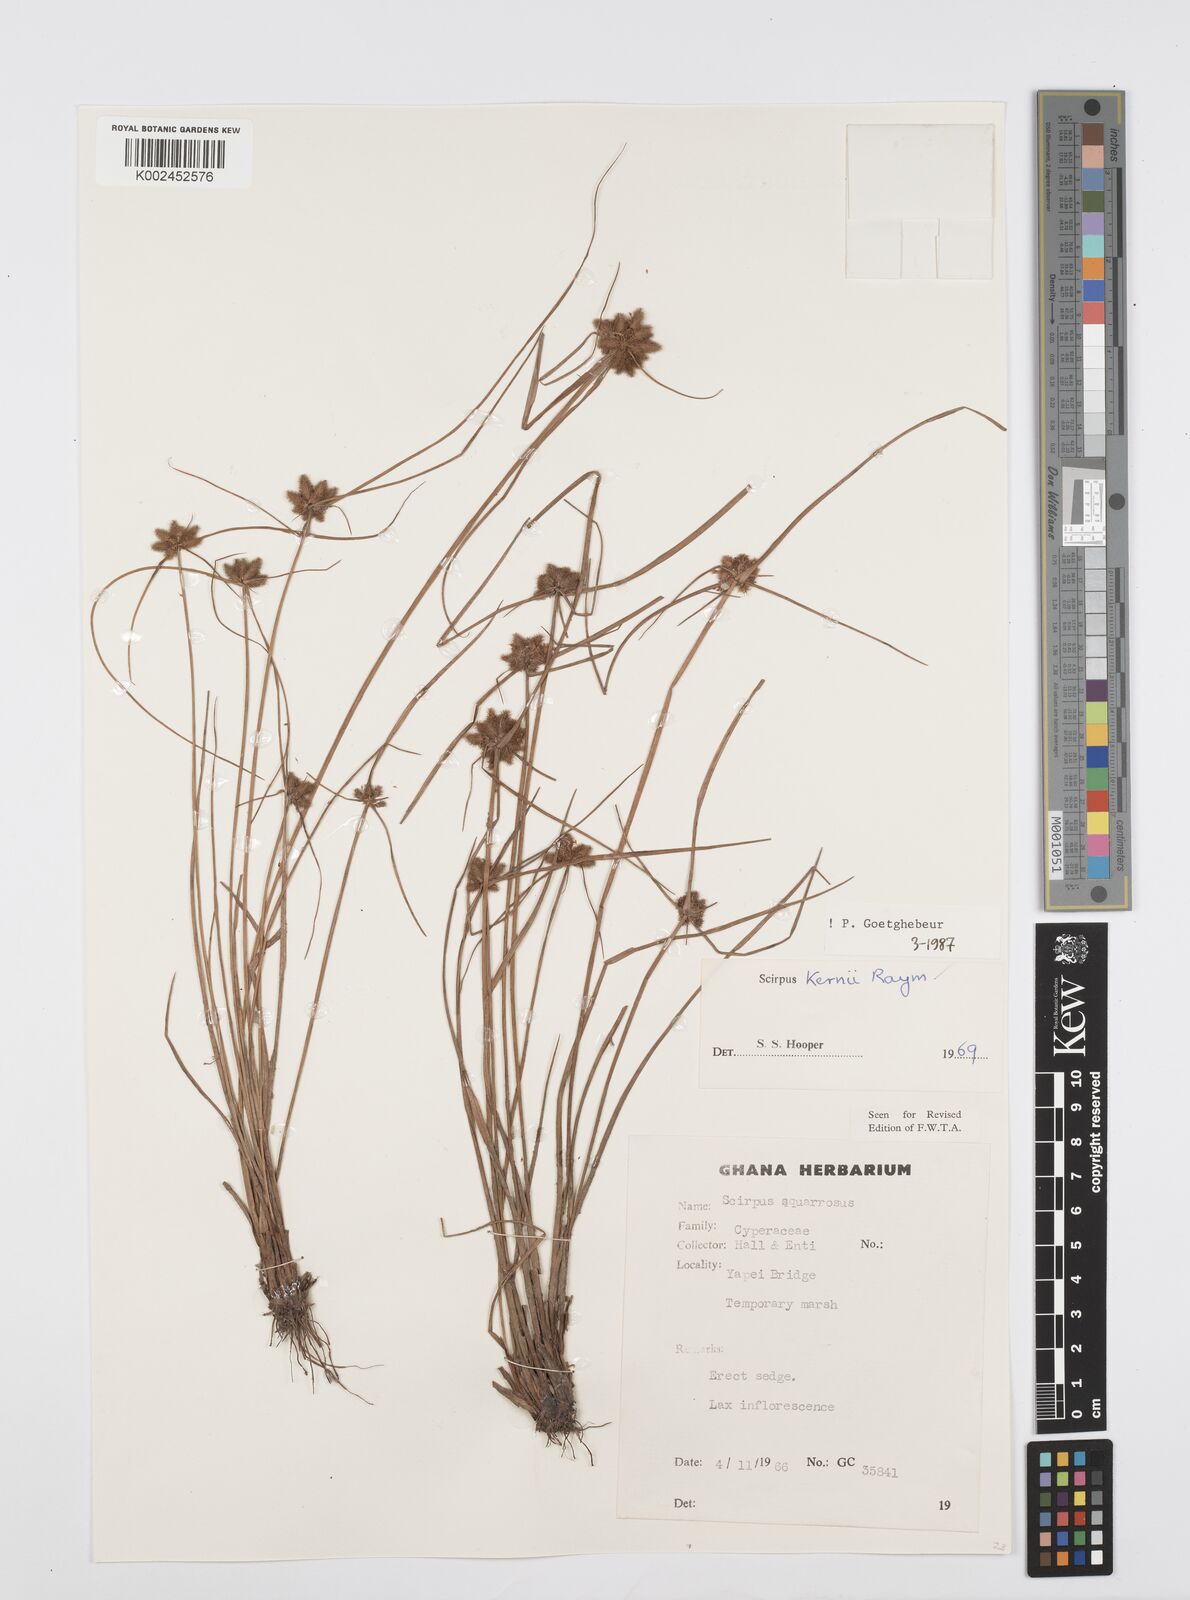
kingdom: Plantae
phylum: Tracheophyta
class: Liliopsida
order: Poales
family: Cyperaceae
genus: Cyperus
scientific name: Cyperus kernii
